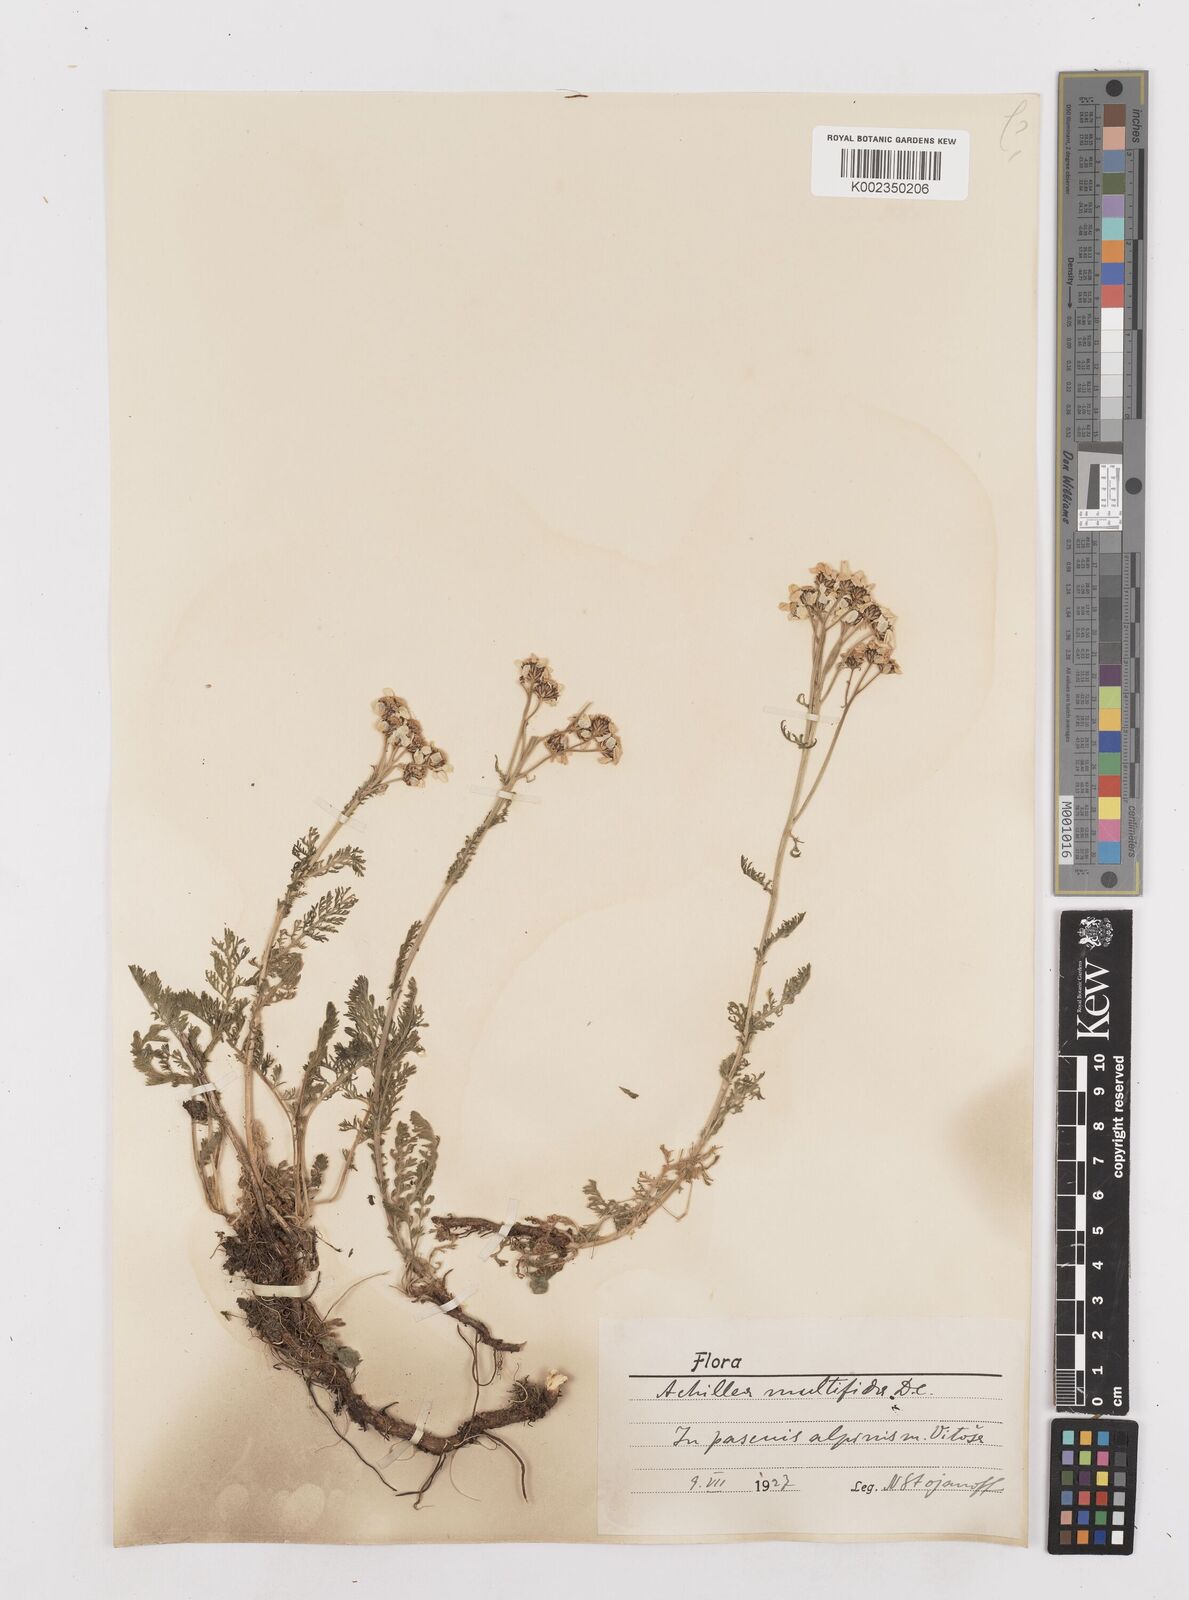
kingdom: Plantae
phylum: Tracheophyta
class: Magnoliopsida
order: Asterales
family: Asteraceae
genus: Achillea
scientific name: Achillea multifida
